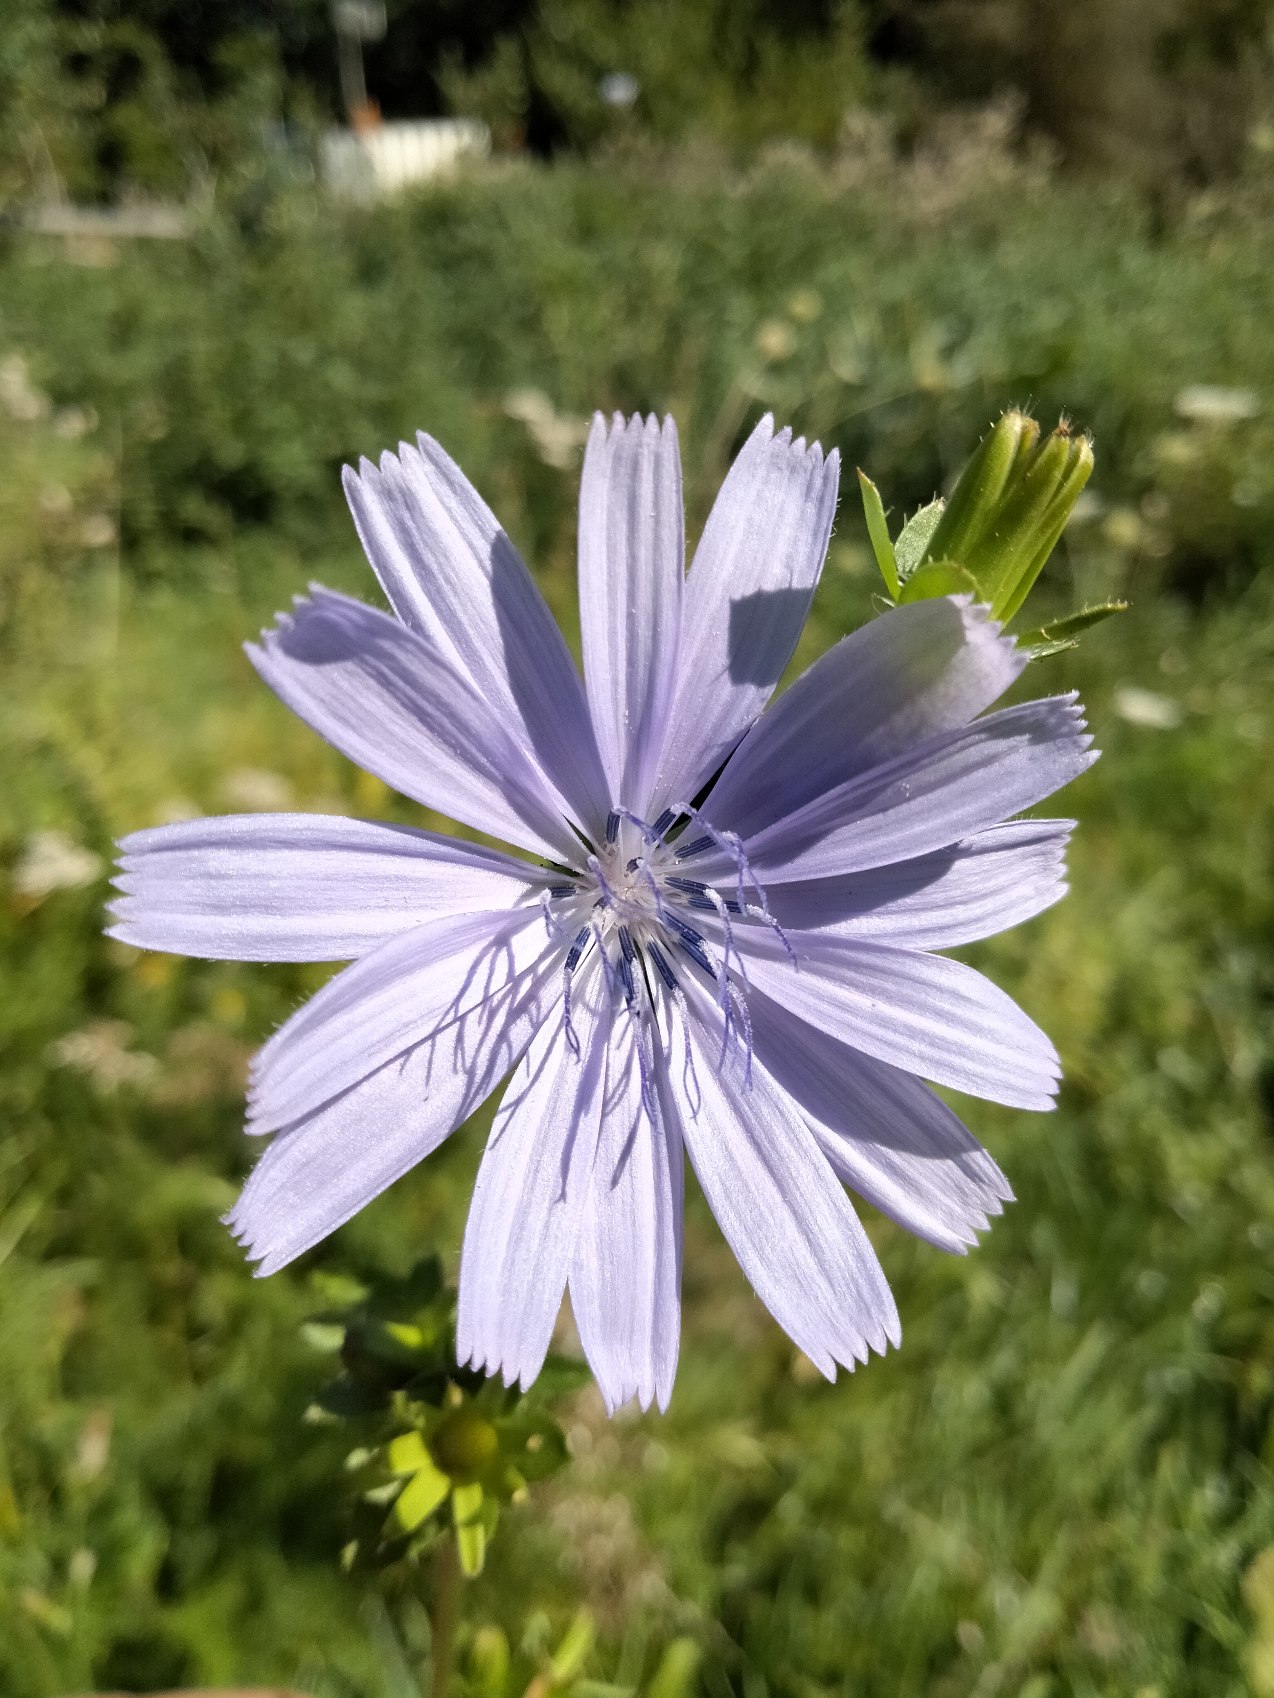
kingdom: Plantae
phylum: Tracheophyta
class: Magnoliopsida
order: Asterales
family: Asteraceae
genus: Cichorium
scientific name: Cichorium intybus
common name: Cikorie
